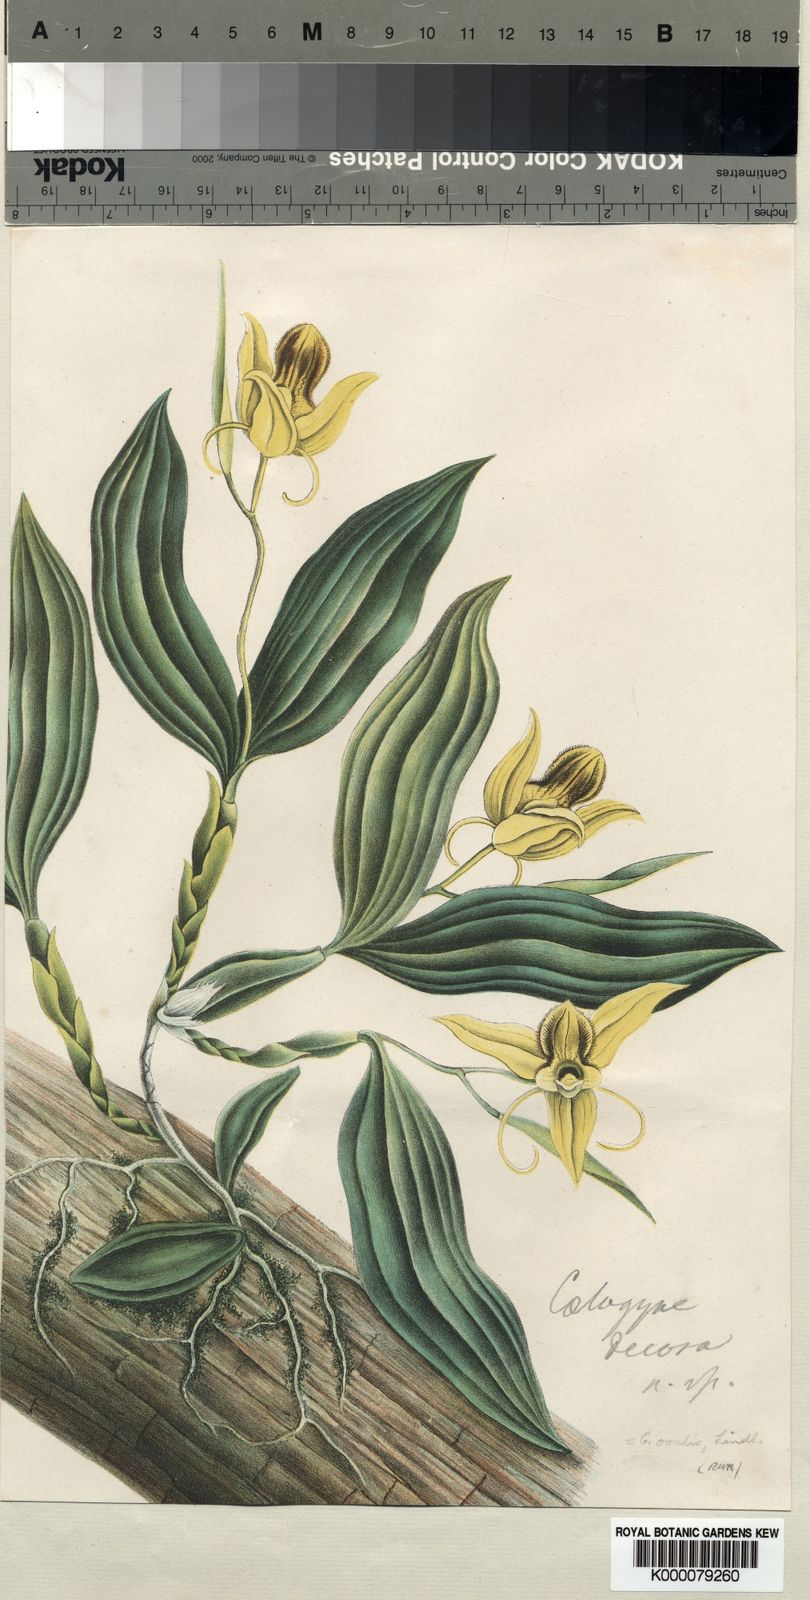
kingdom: Plantae
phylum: Tracheophyta
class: Liliopsida
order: Asparagales
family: Orchidaceae
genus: Coelogyne
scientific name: Coelogyne ovalis
